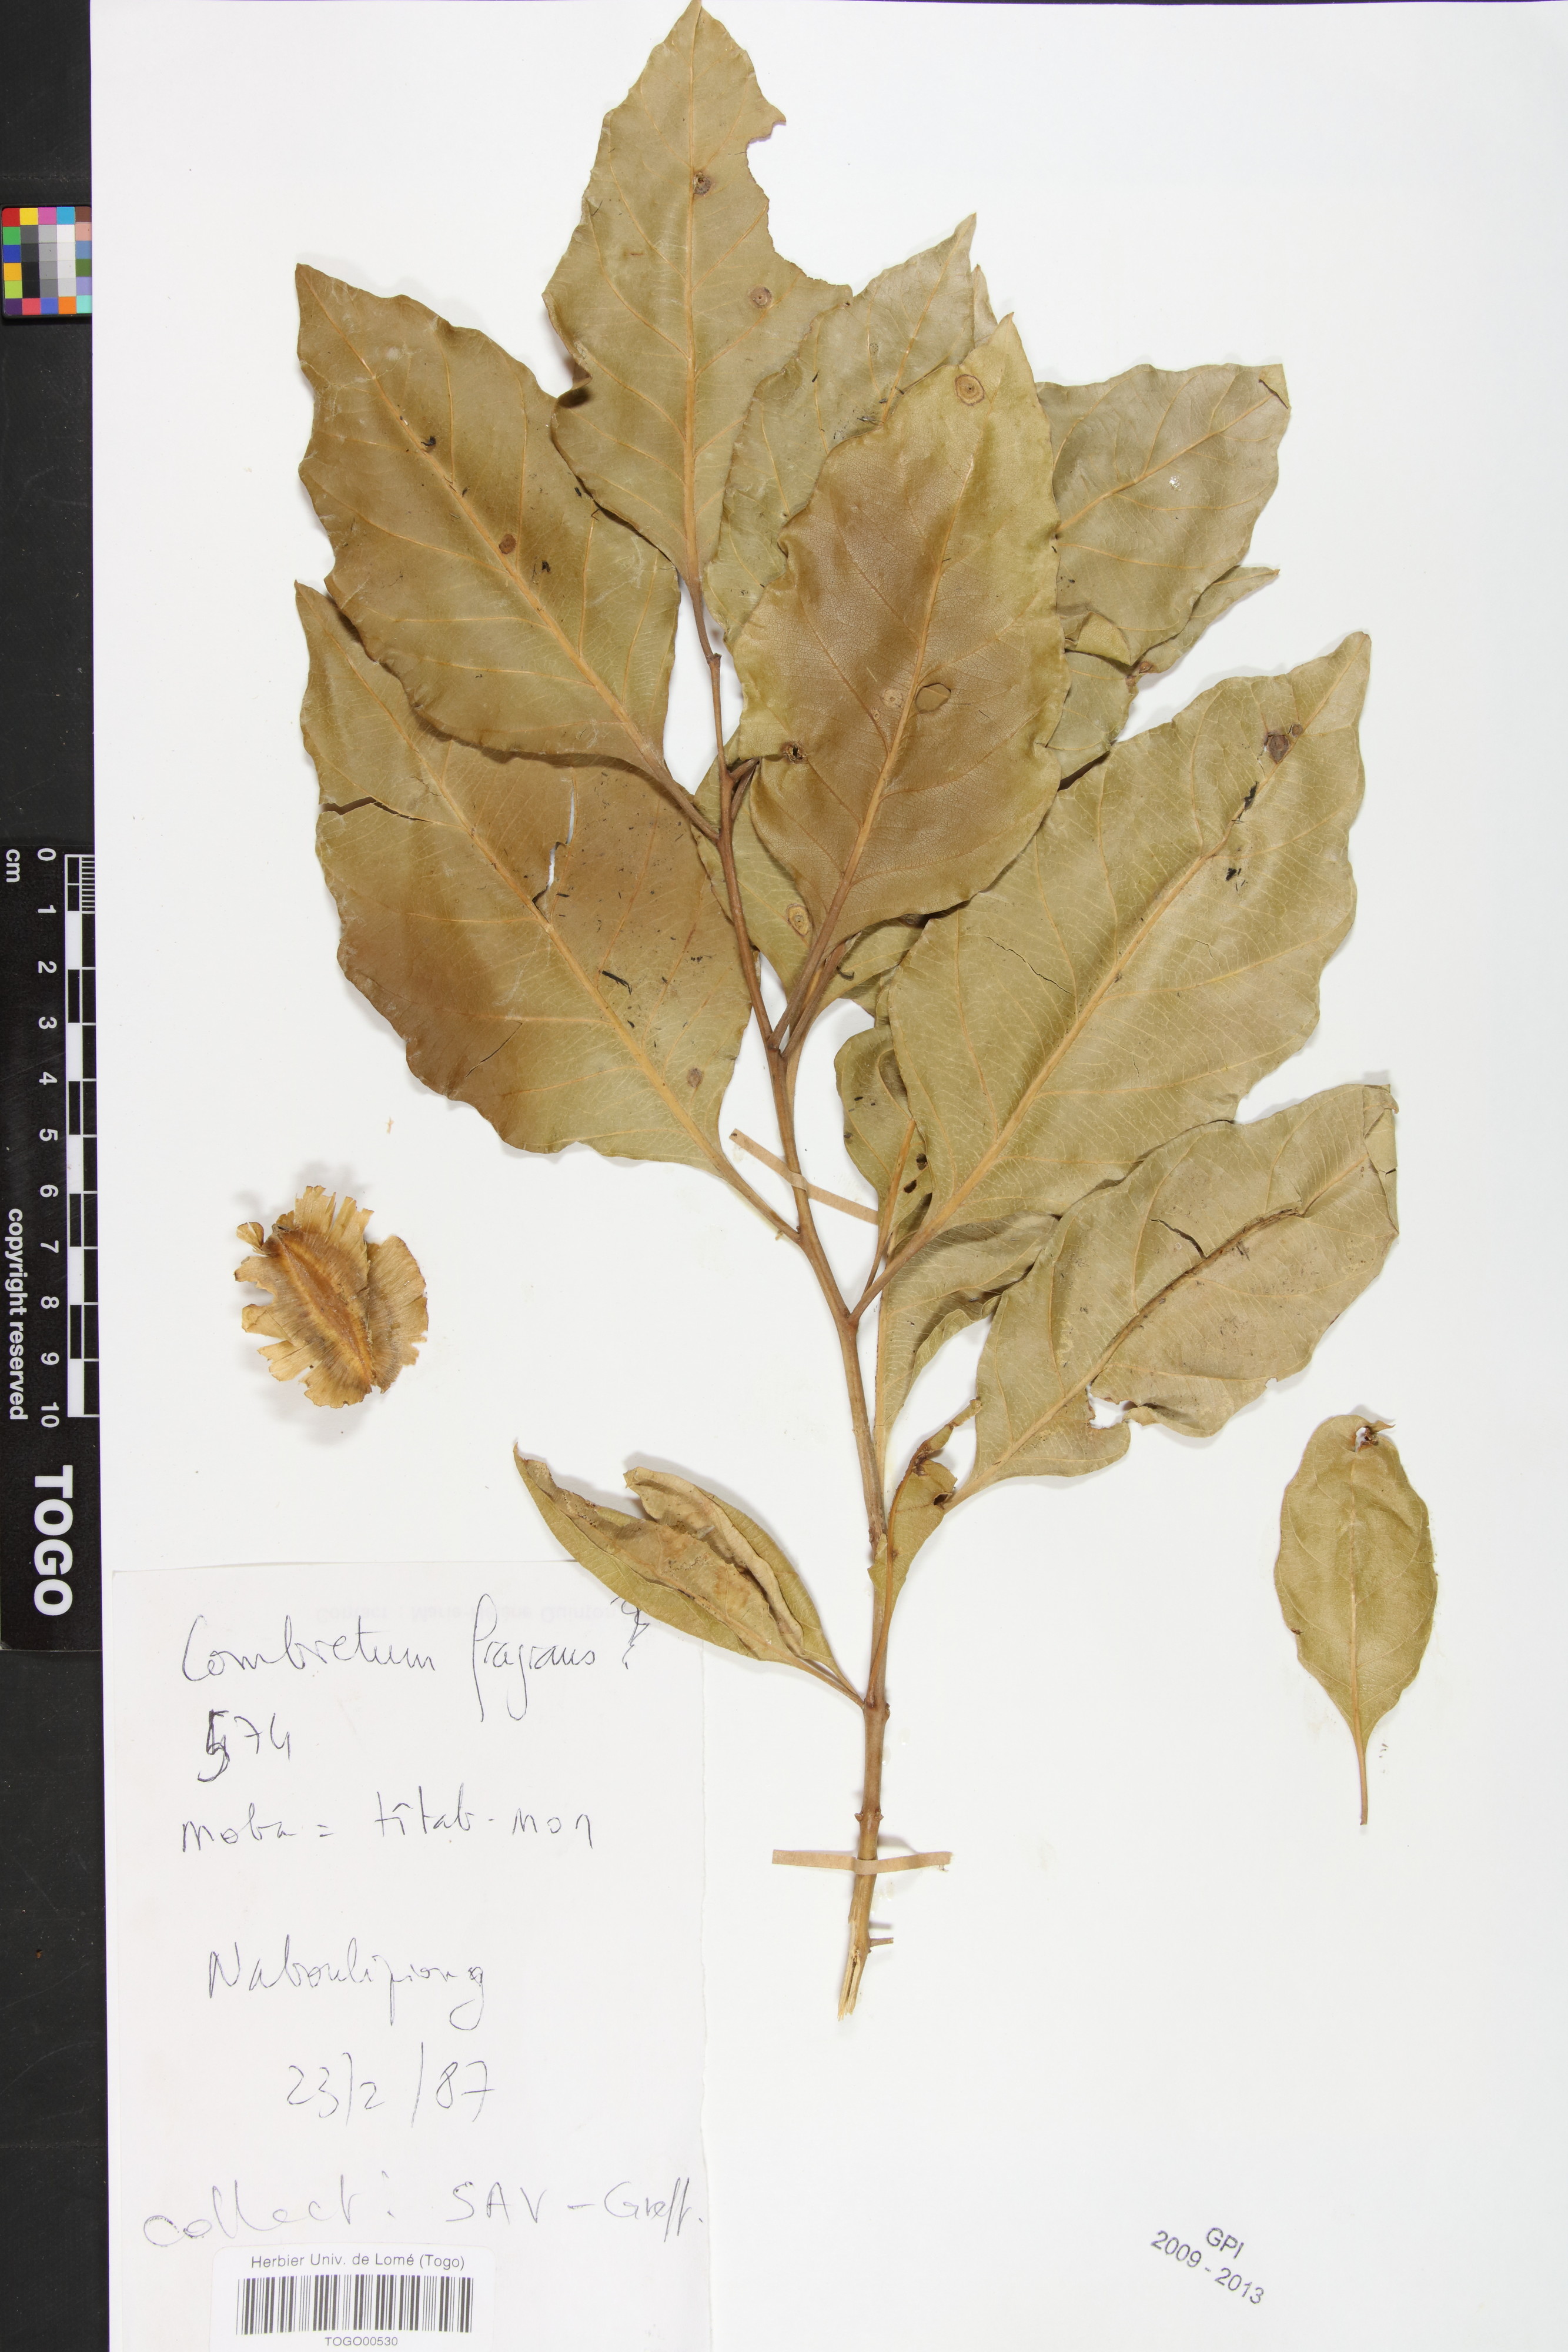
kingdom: Plantae
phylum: Tracheophyta
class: Magnoliopsida
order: Myrtales
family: Combretaceae
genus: Combretum
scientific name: Combretum adenogonium
